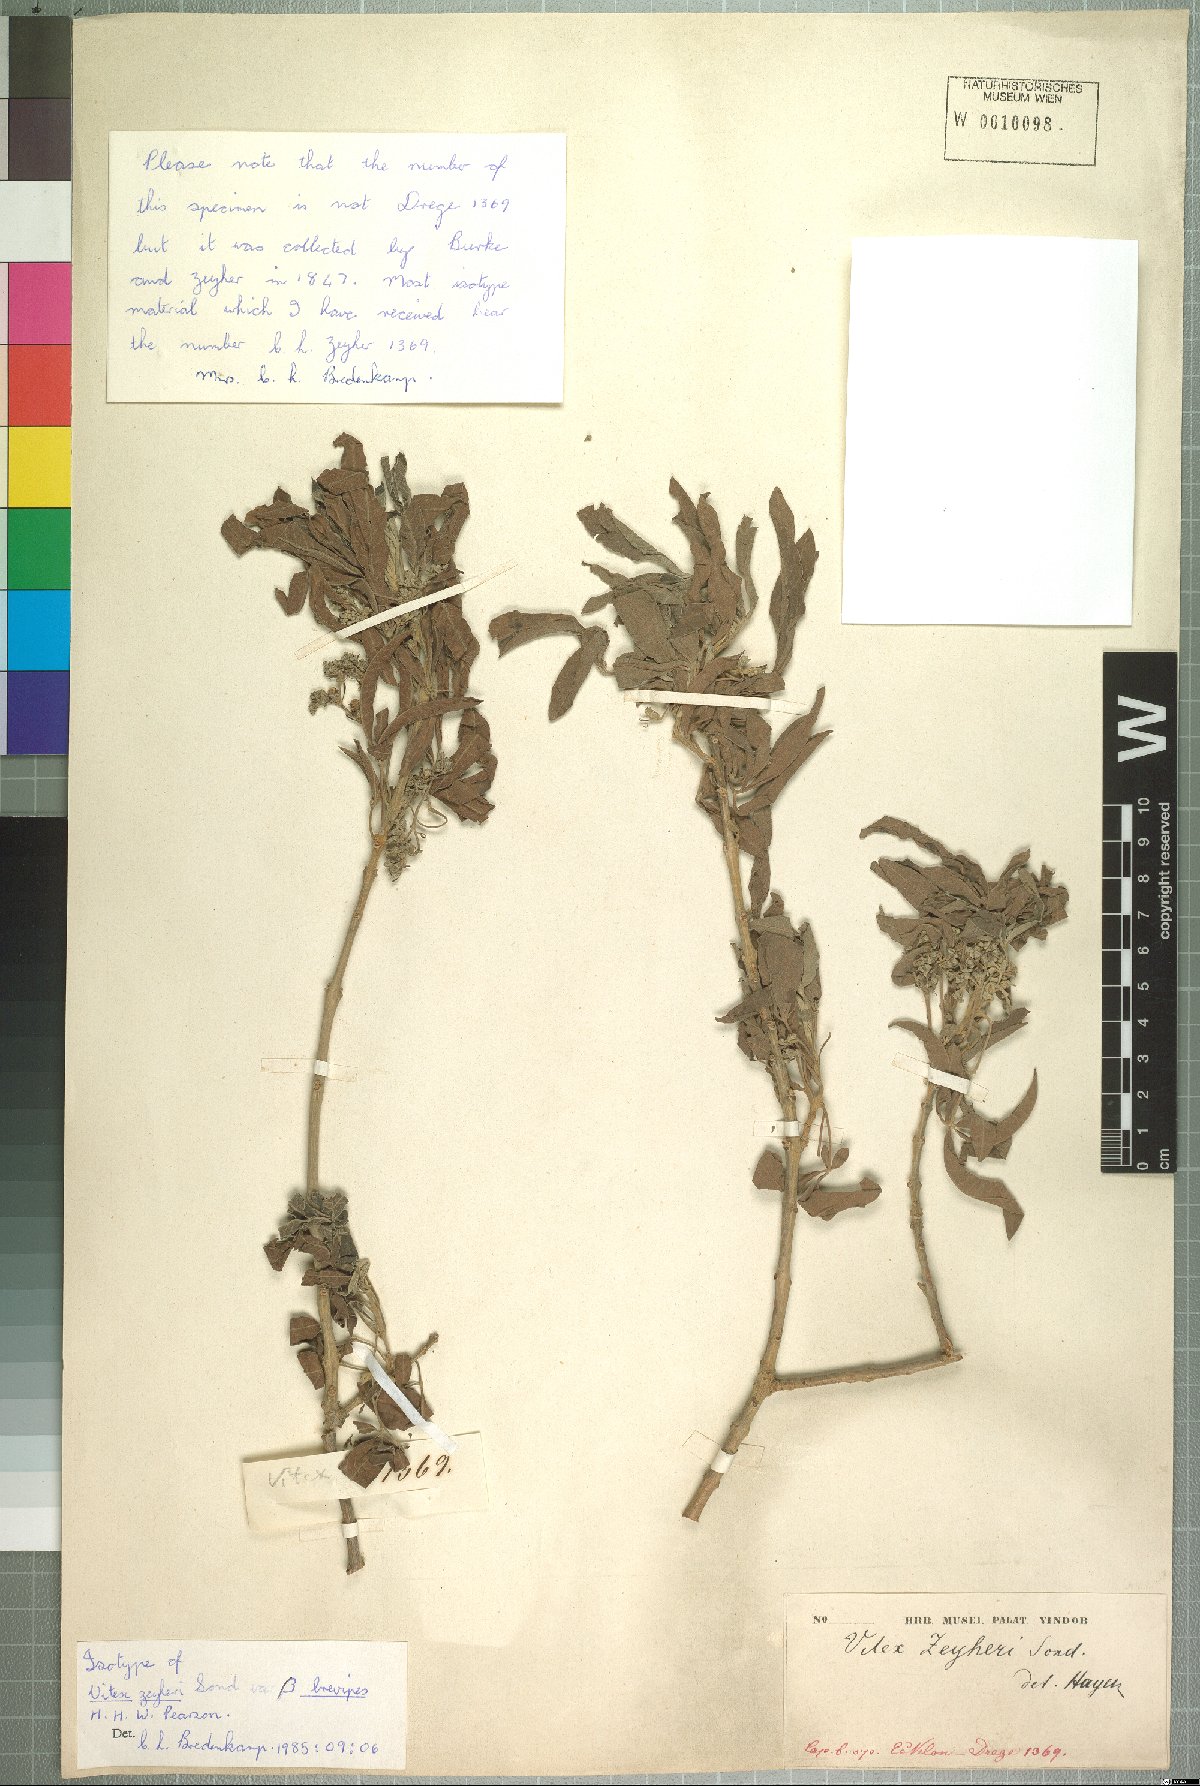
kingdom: Plantae
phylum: Tracheophyta
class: Magnoliopsida
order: Lamiales
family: Lamiaceae
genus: Vitex
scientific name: Vitex zeyheri
